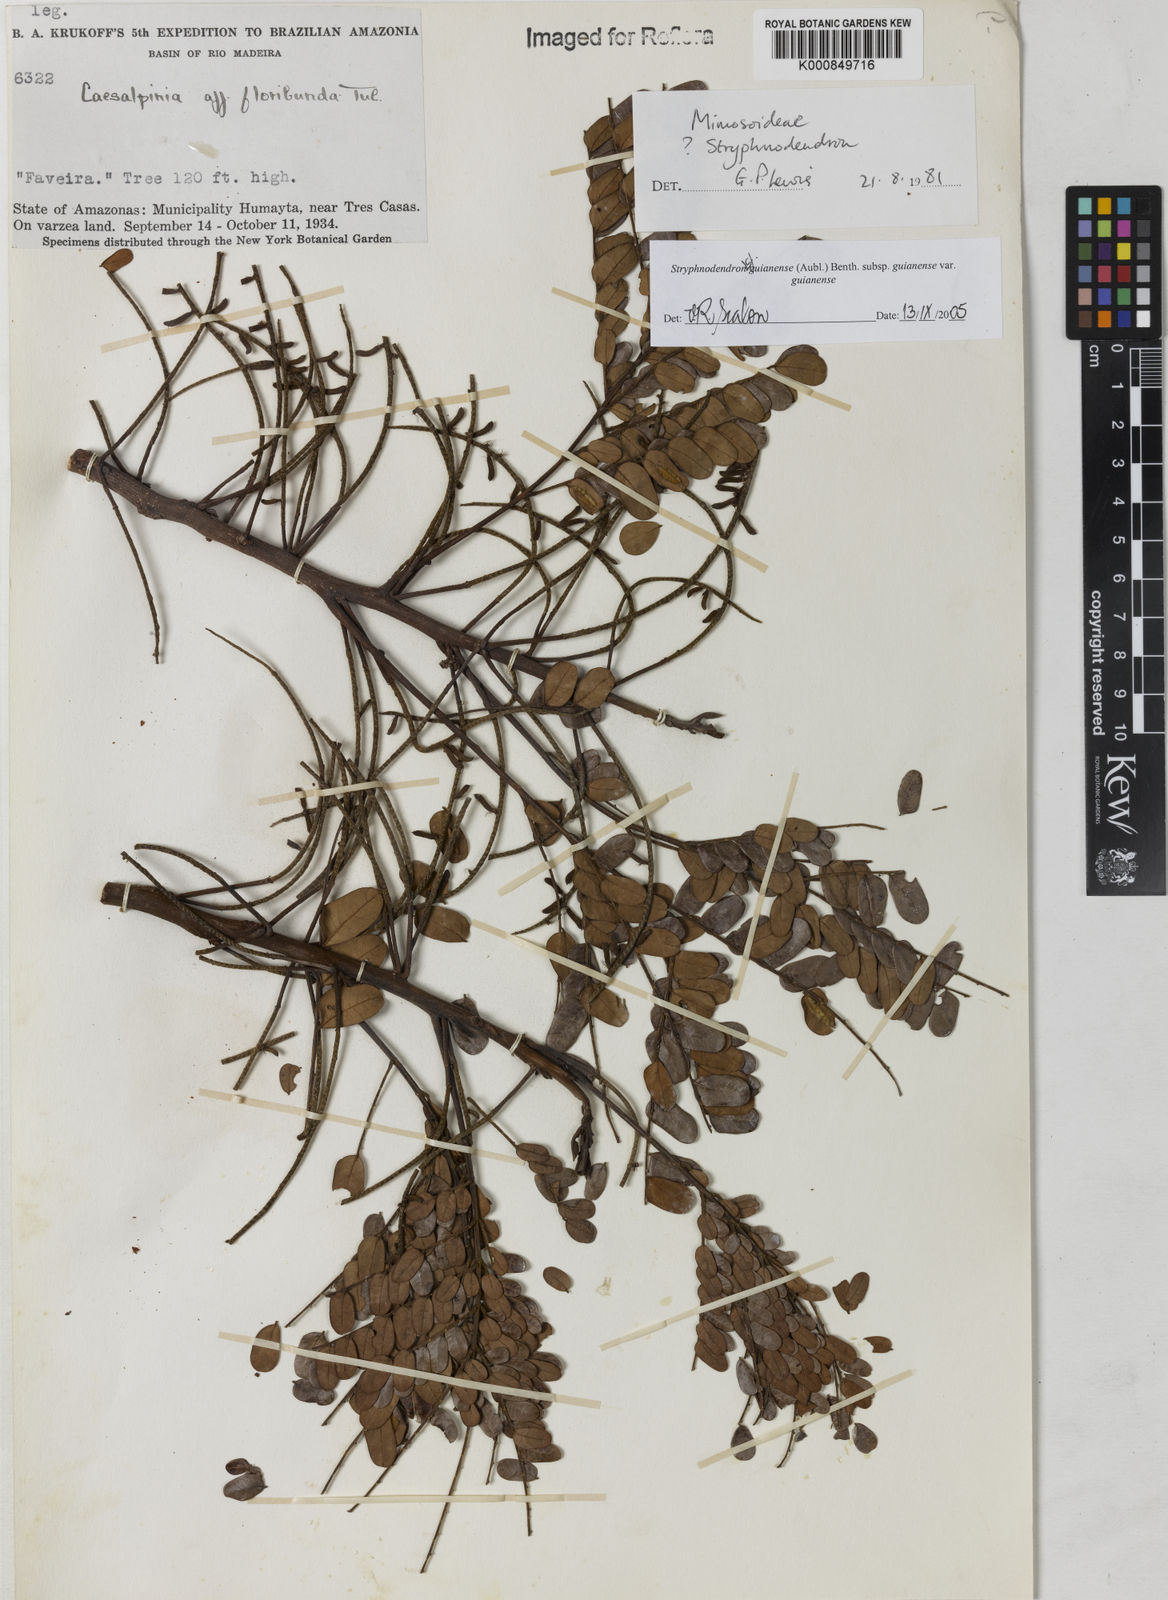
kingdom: Plantae
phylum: Tracheophyta
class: Magnoliopsida
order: Fabales
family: Fabaceae
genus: Stryphnodendron
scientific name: Stryphnodendron guianense
